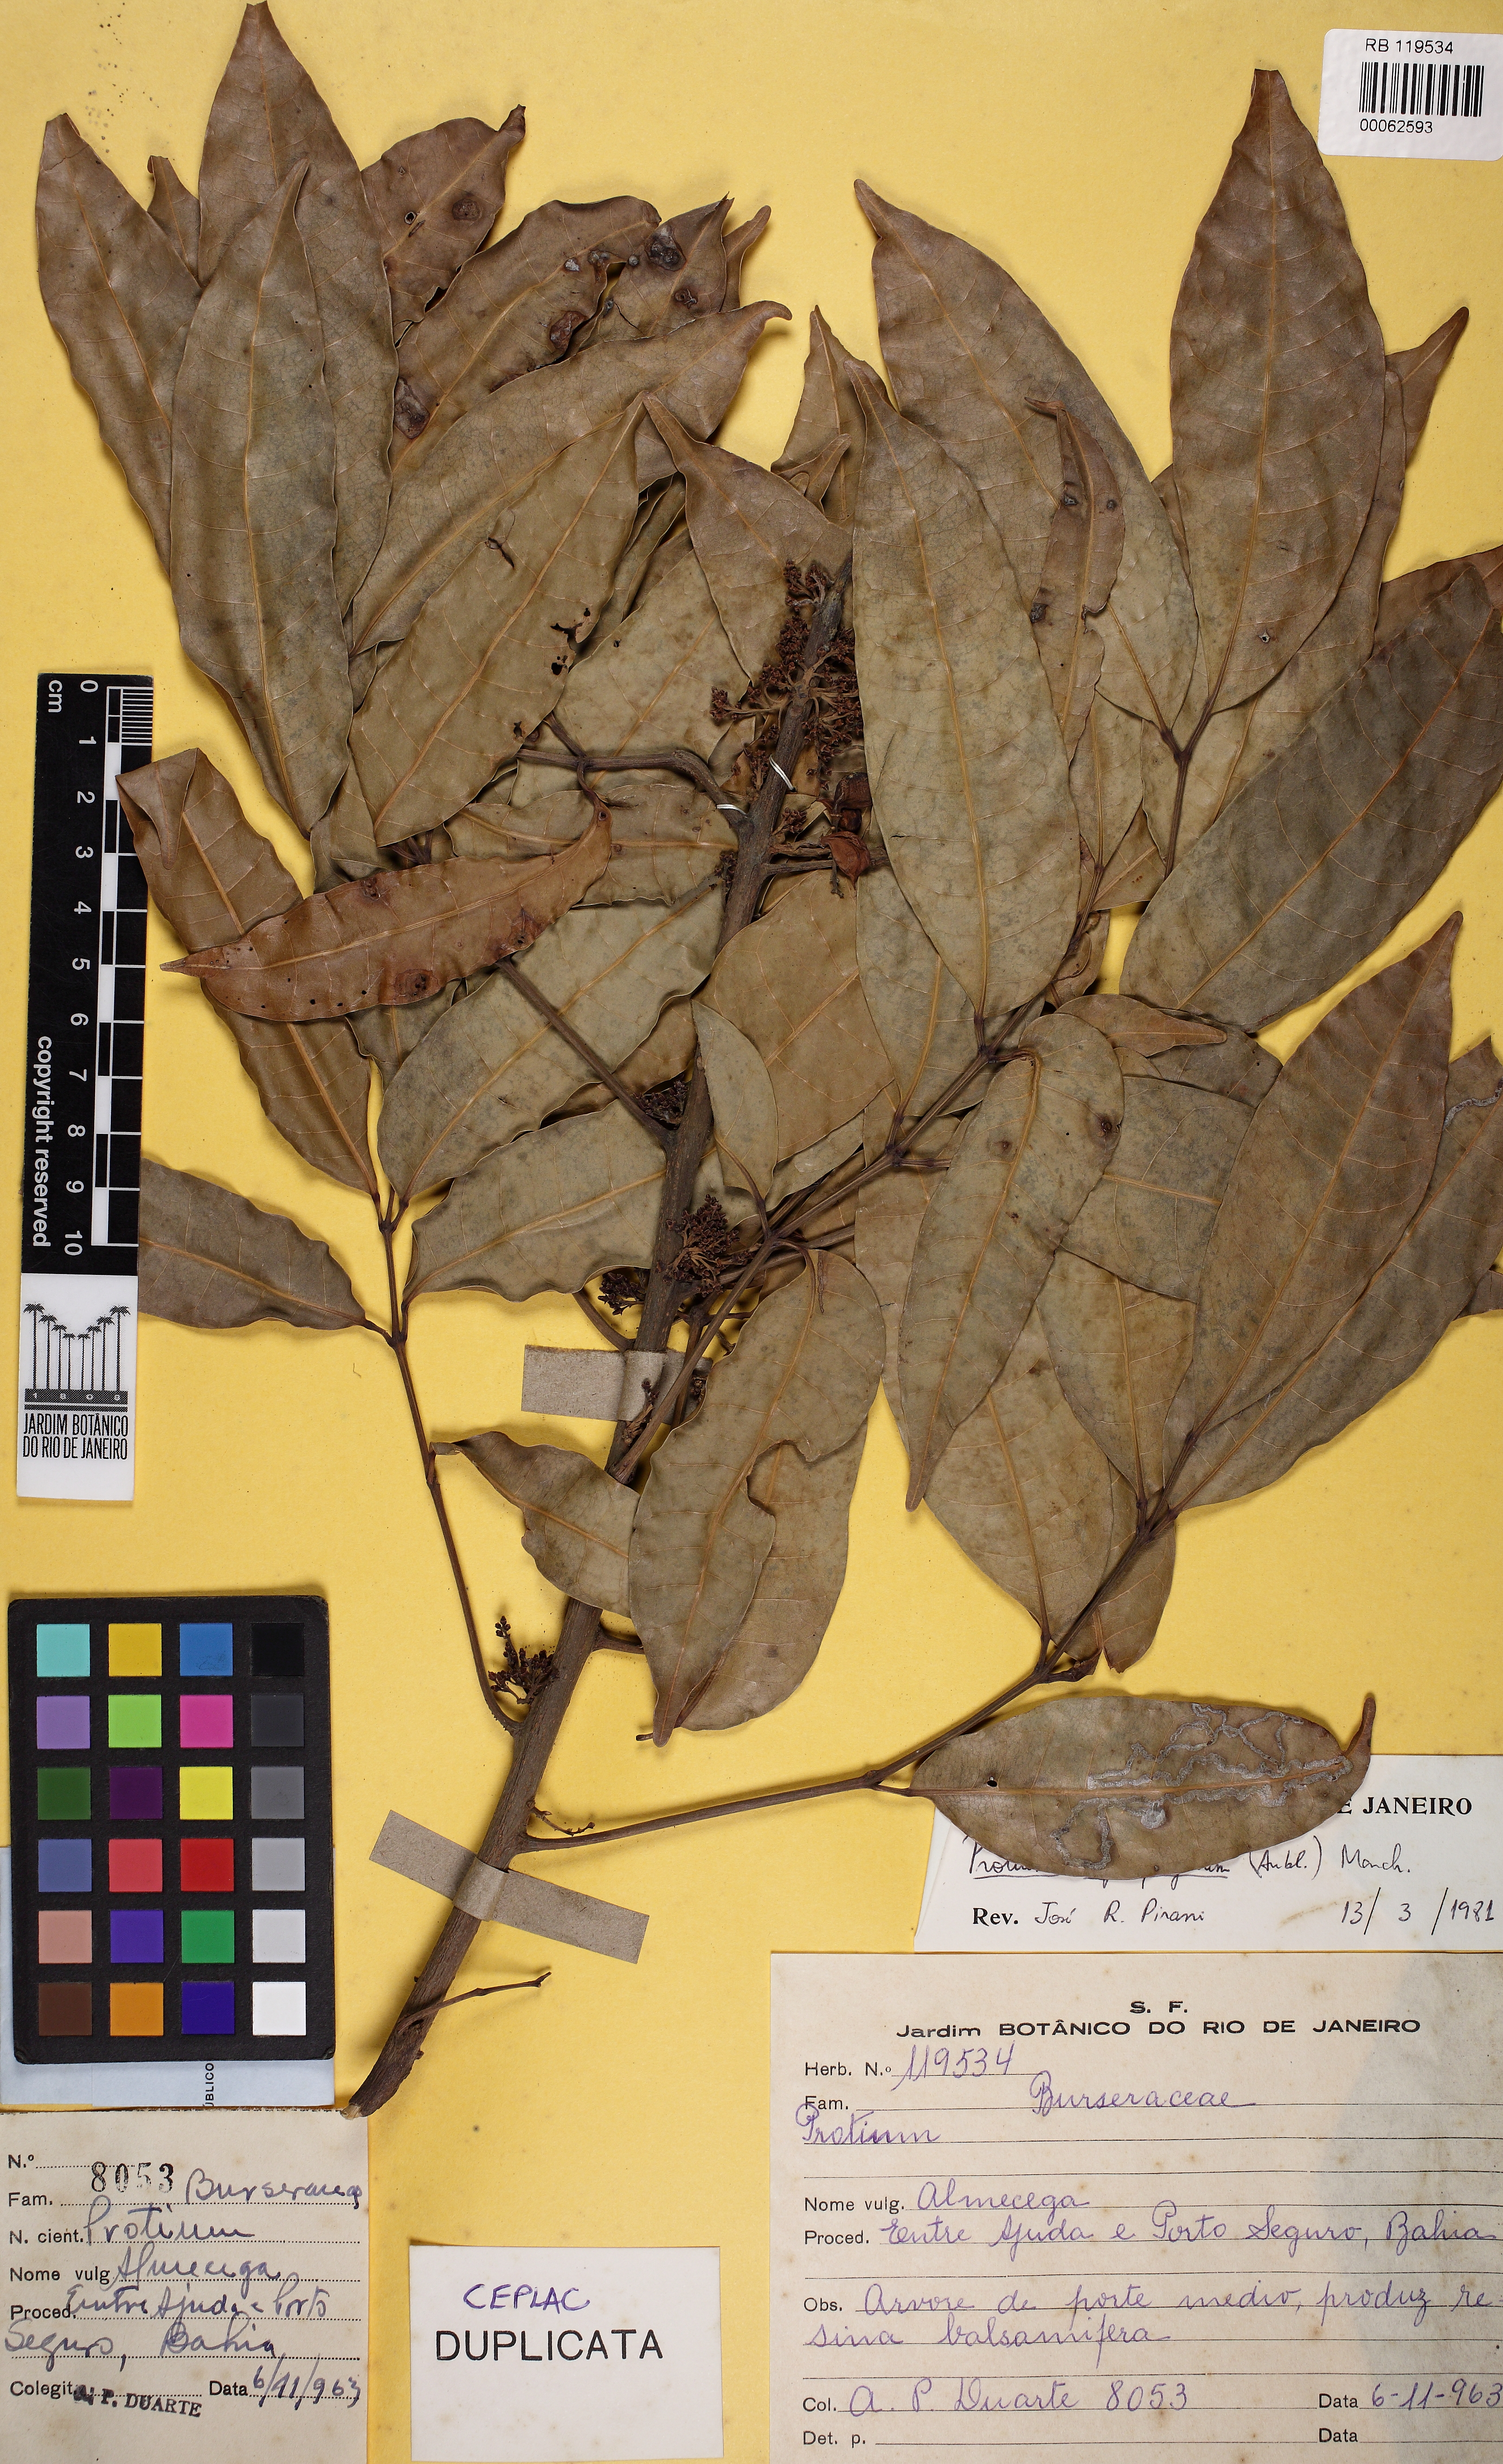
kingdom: Plantae
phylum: Tracheophyta
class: Magnoliopsida
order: Sapindales
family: Burseraceae
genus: Protium
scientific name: Protium heptaphyllum
